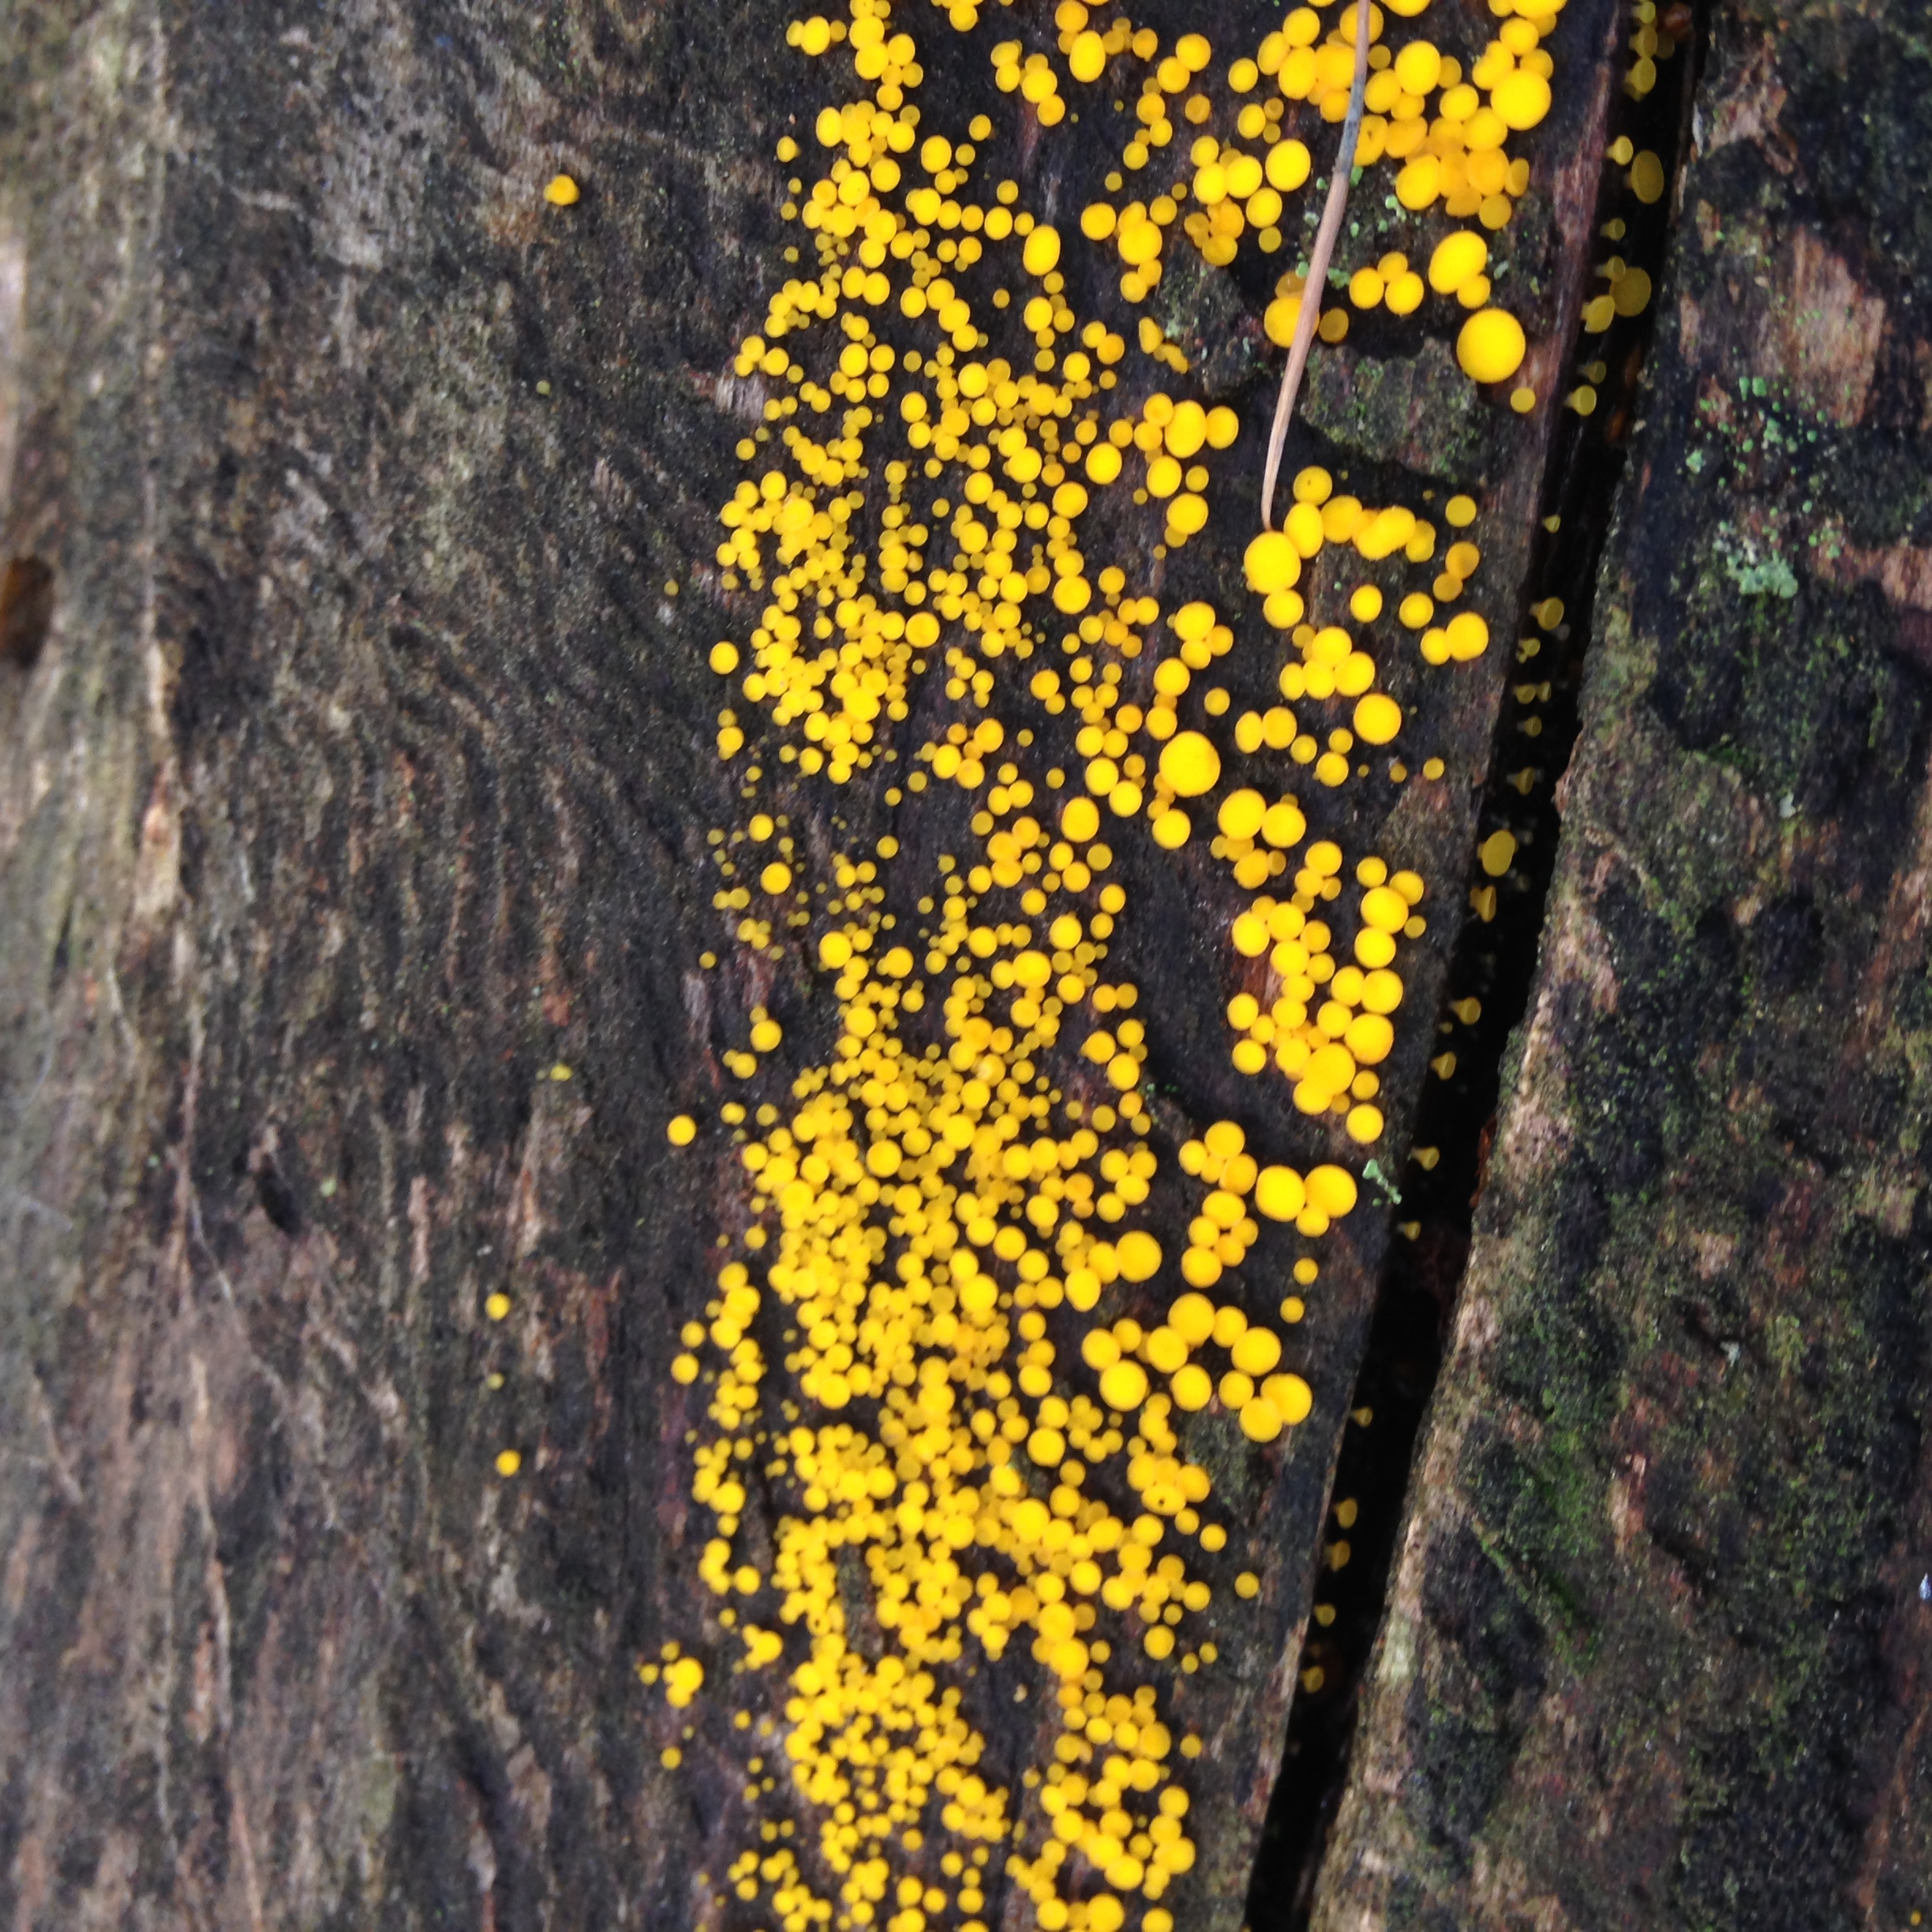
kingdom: Fungi
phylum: Ascomycota
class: Leotiomycetes
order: Helotiales
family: Pezizellaceae
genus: Calycina
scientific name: Calycina citrina
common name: Yellow fairy cups
